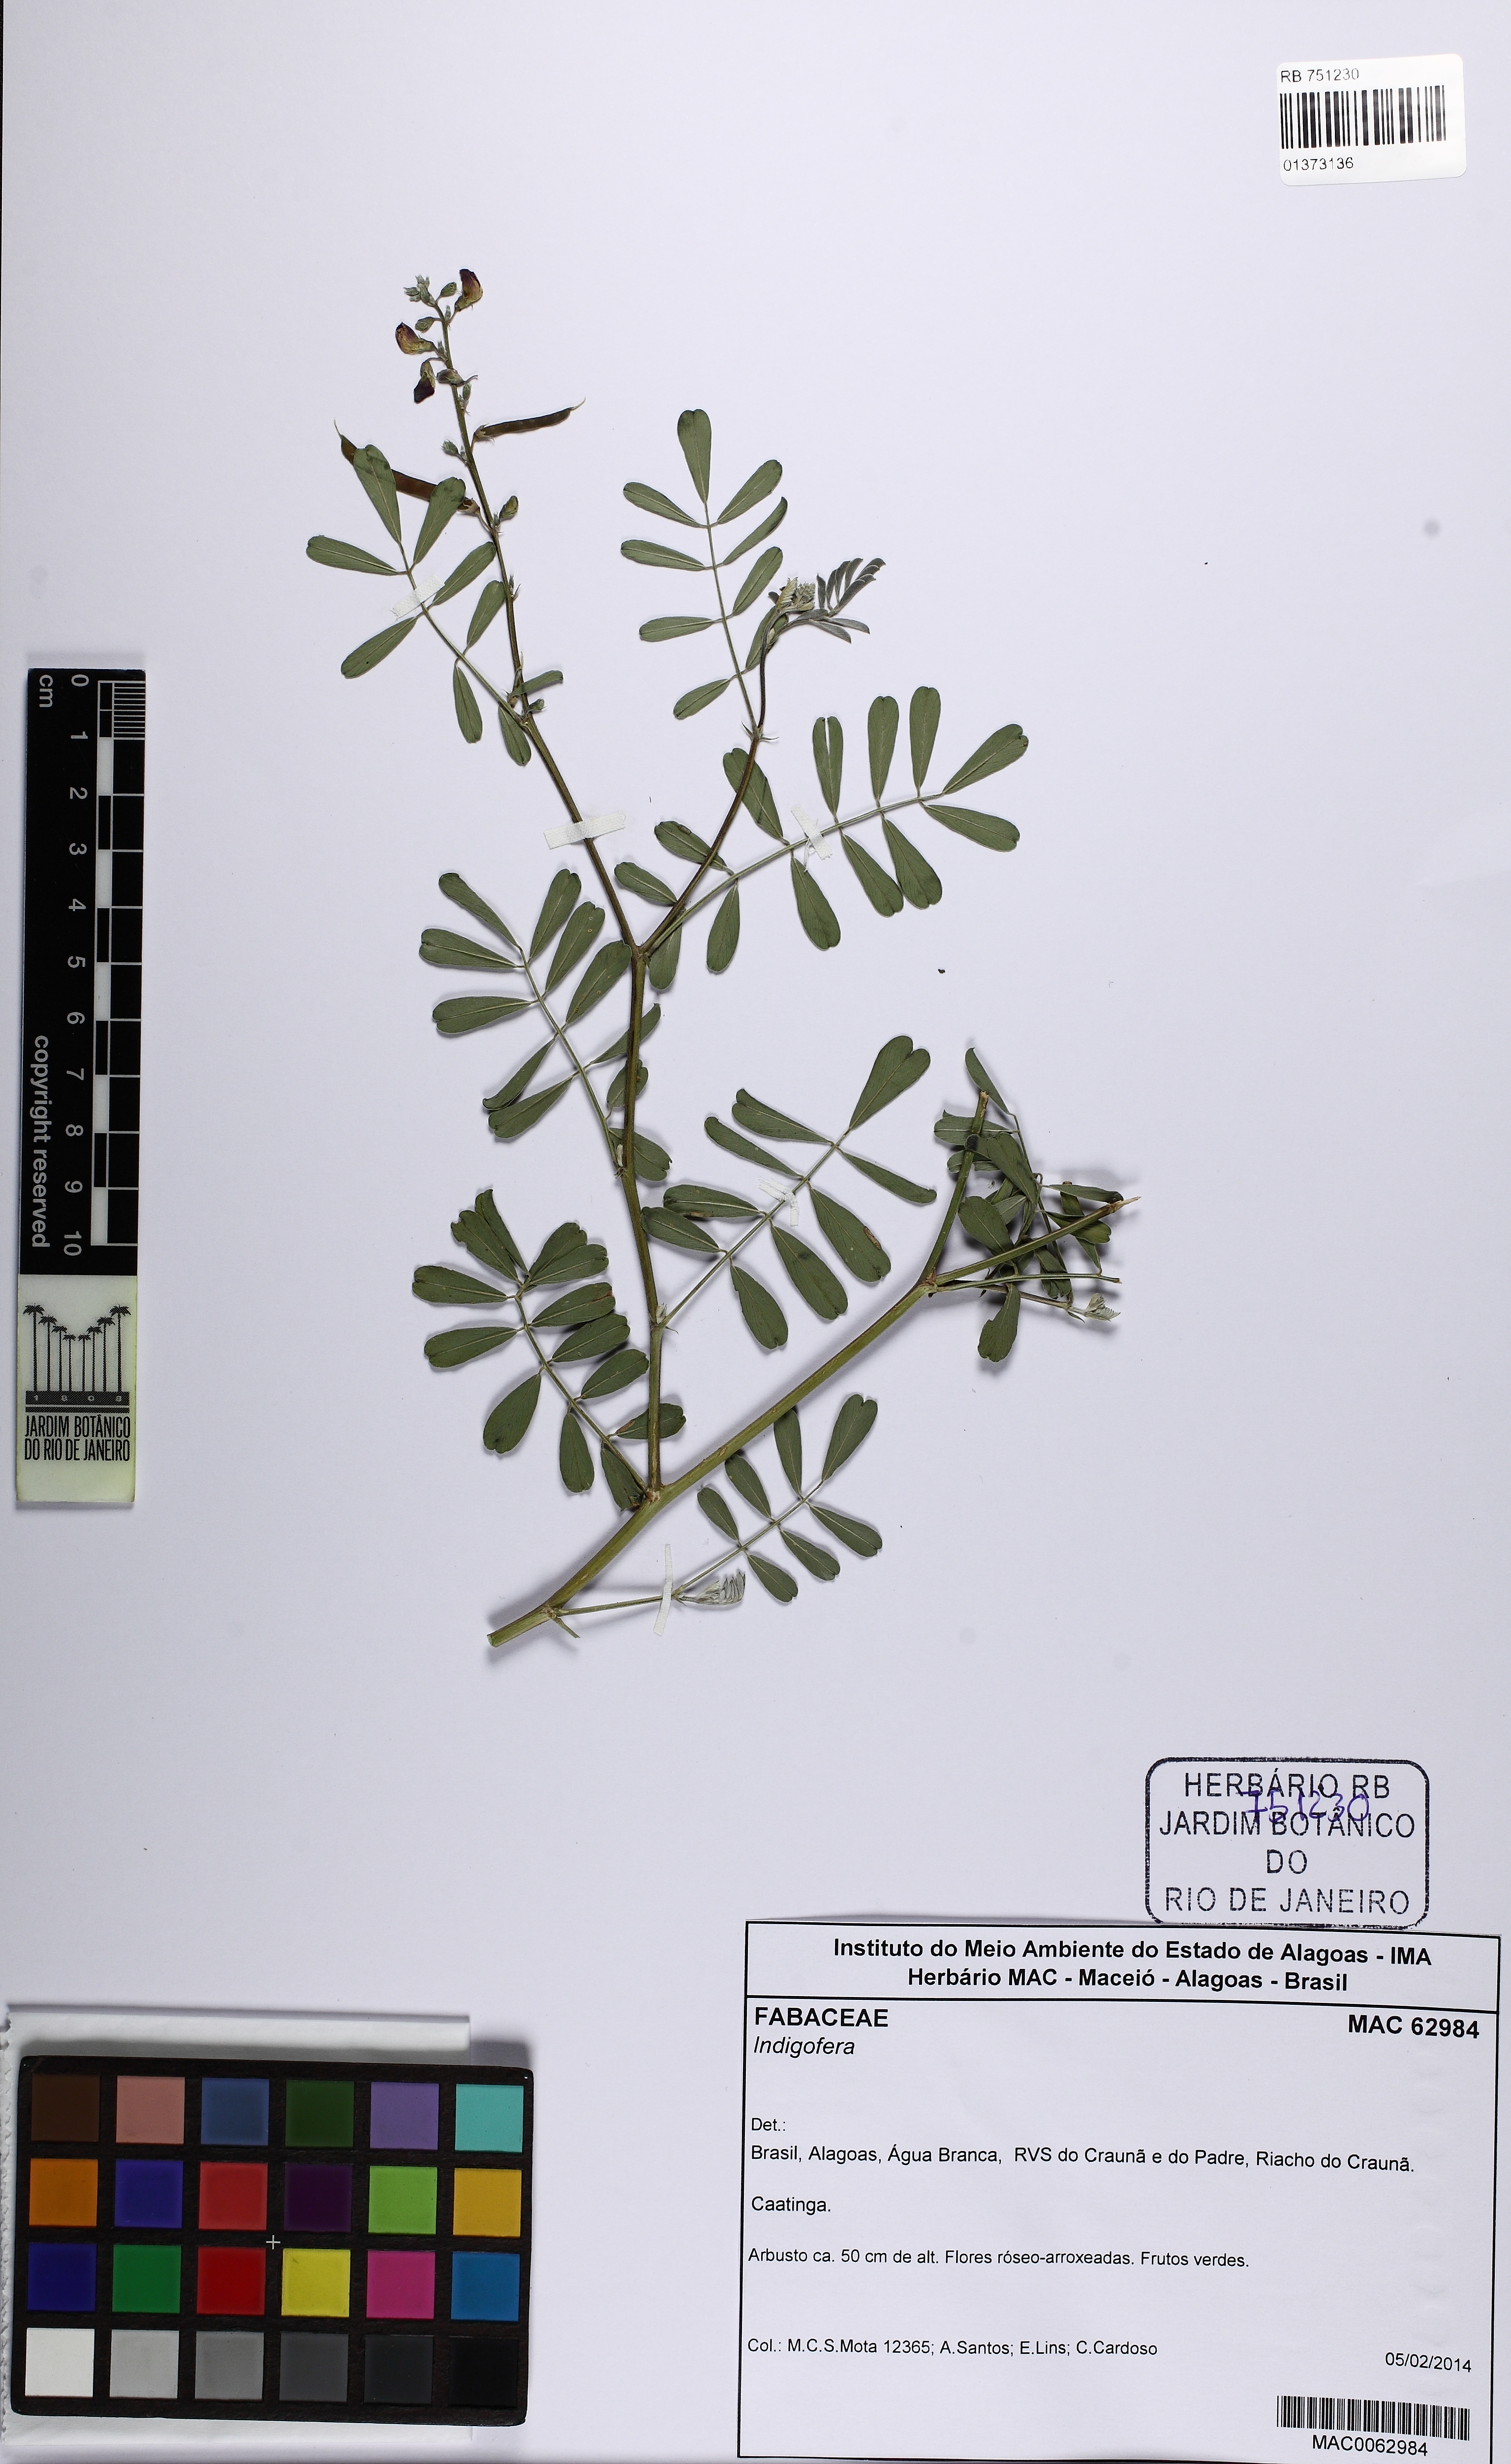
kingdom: Plantae
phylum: Tracheophyta
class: Magnoliopsida
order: Fabales
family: Fabaceae
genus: Indigofera
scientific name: Indigofera
